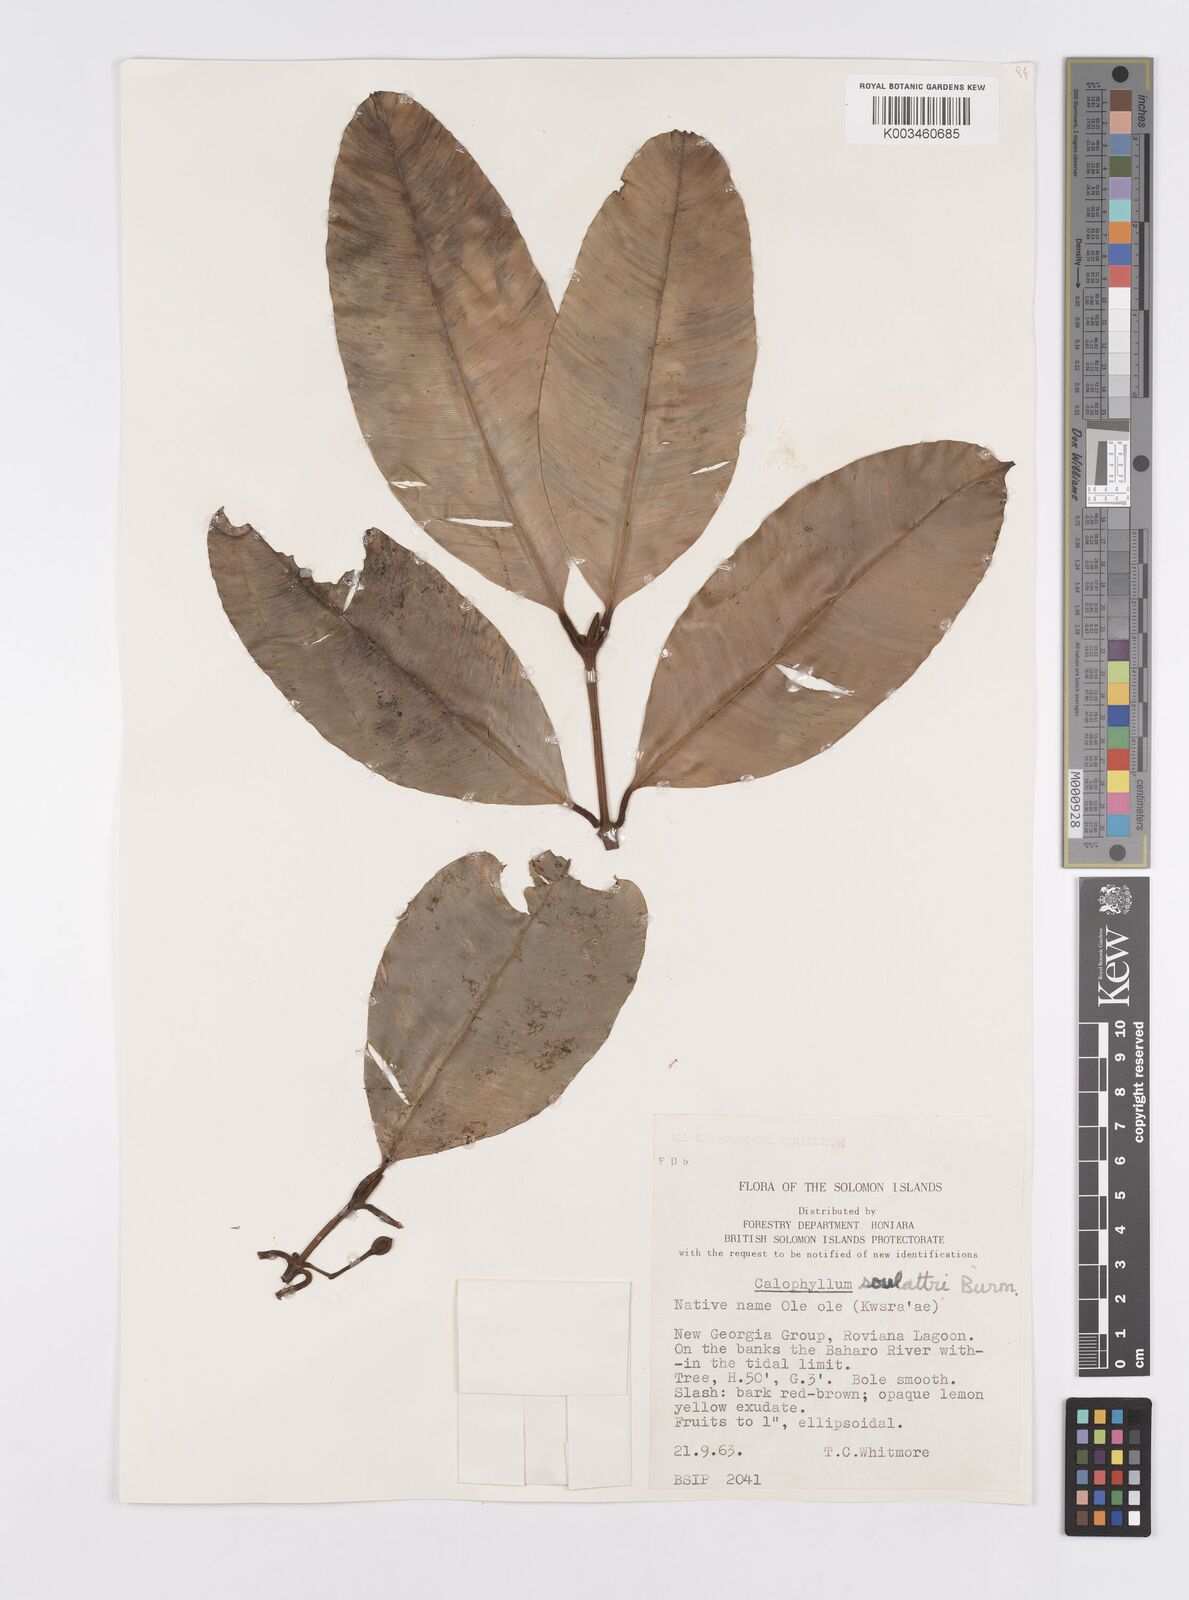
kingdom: Plantae
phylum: Tracheophyta
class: Magnoliopsida
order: Malpighiales
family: Calophyllaceae
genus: Calophyllum
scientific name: Calophyllum soulattri
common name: Bitangoor boonot
